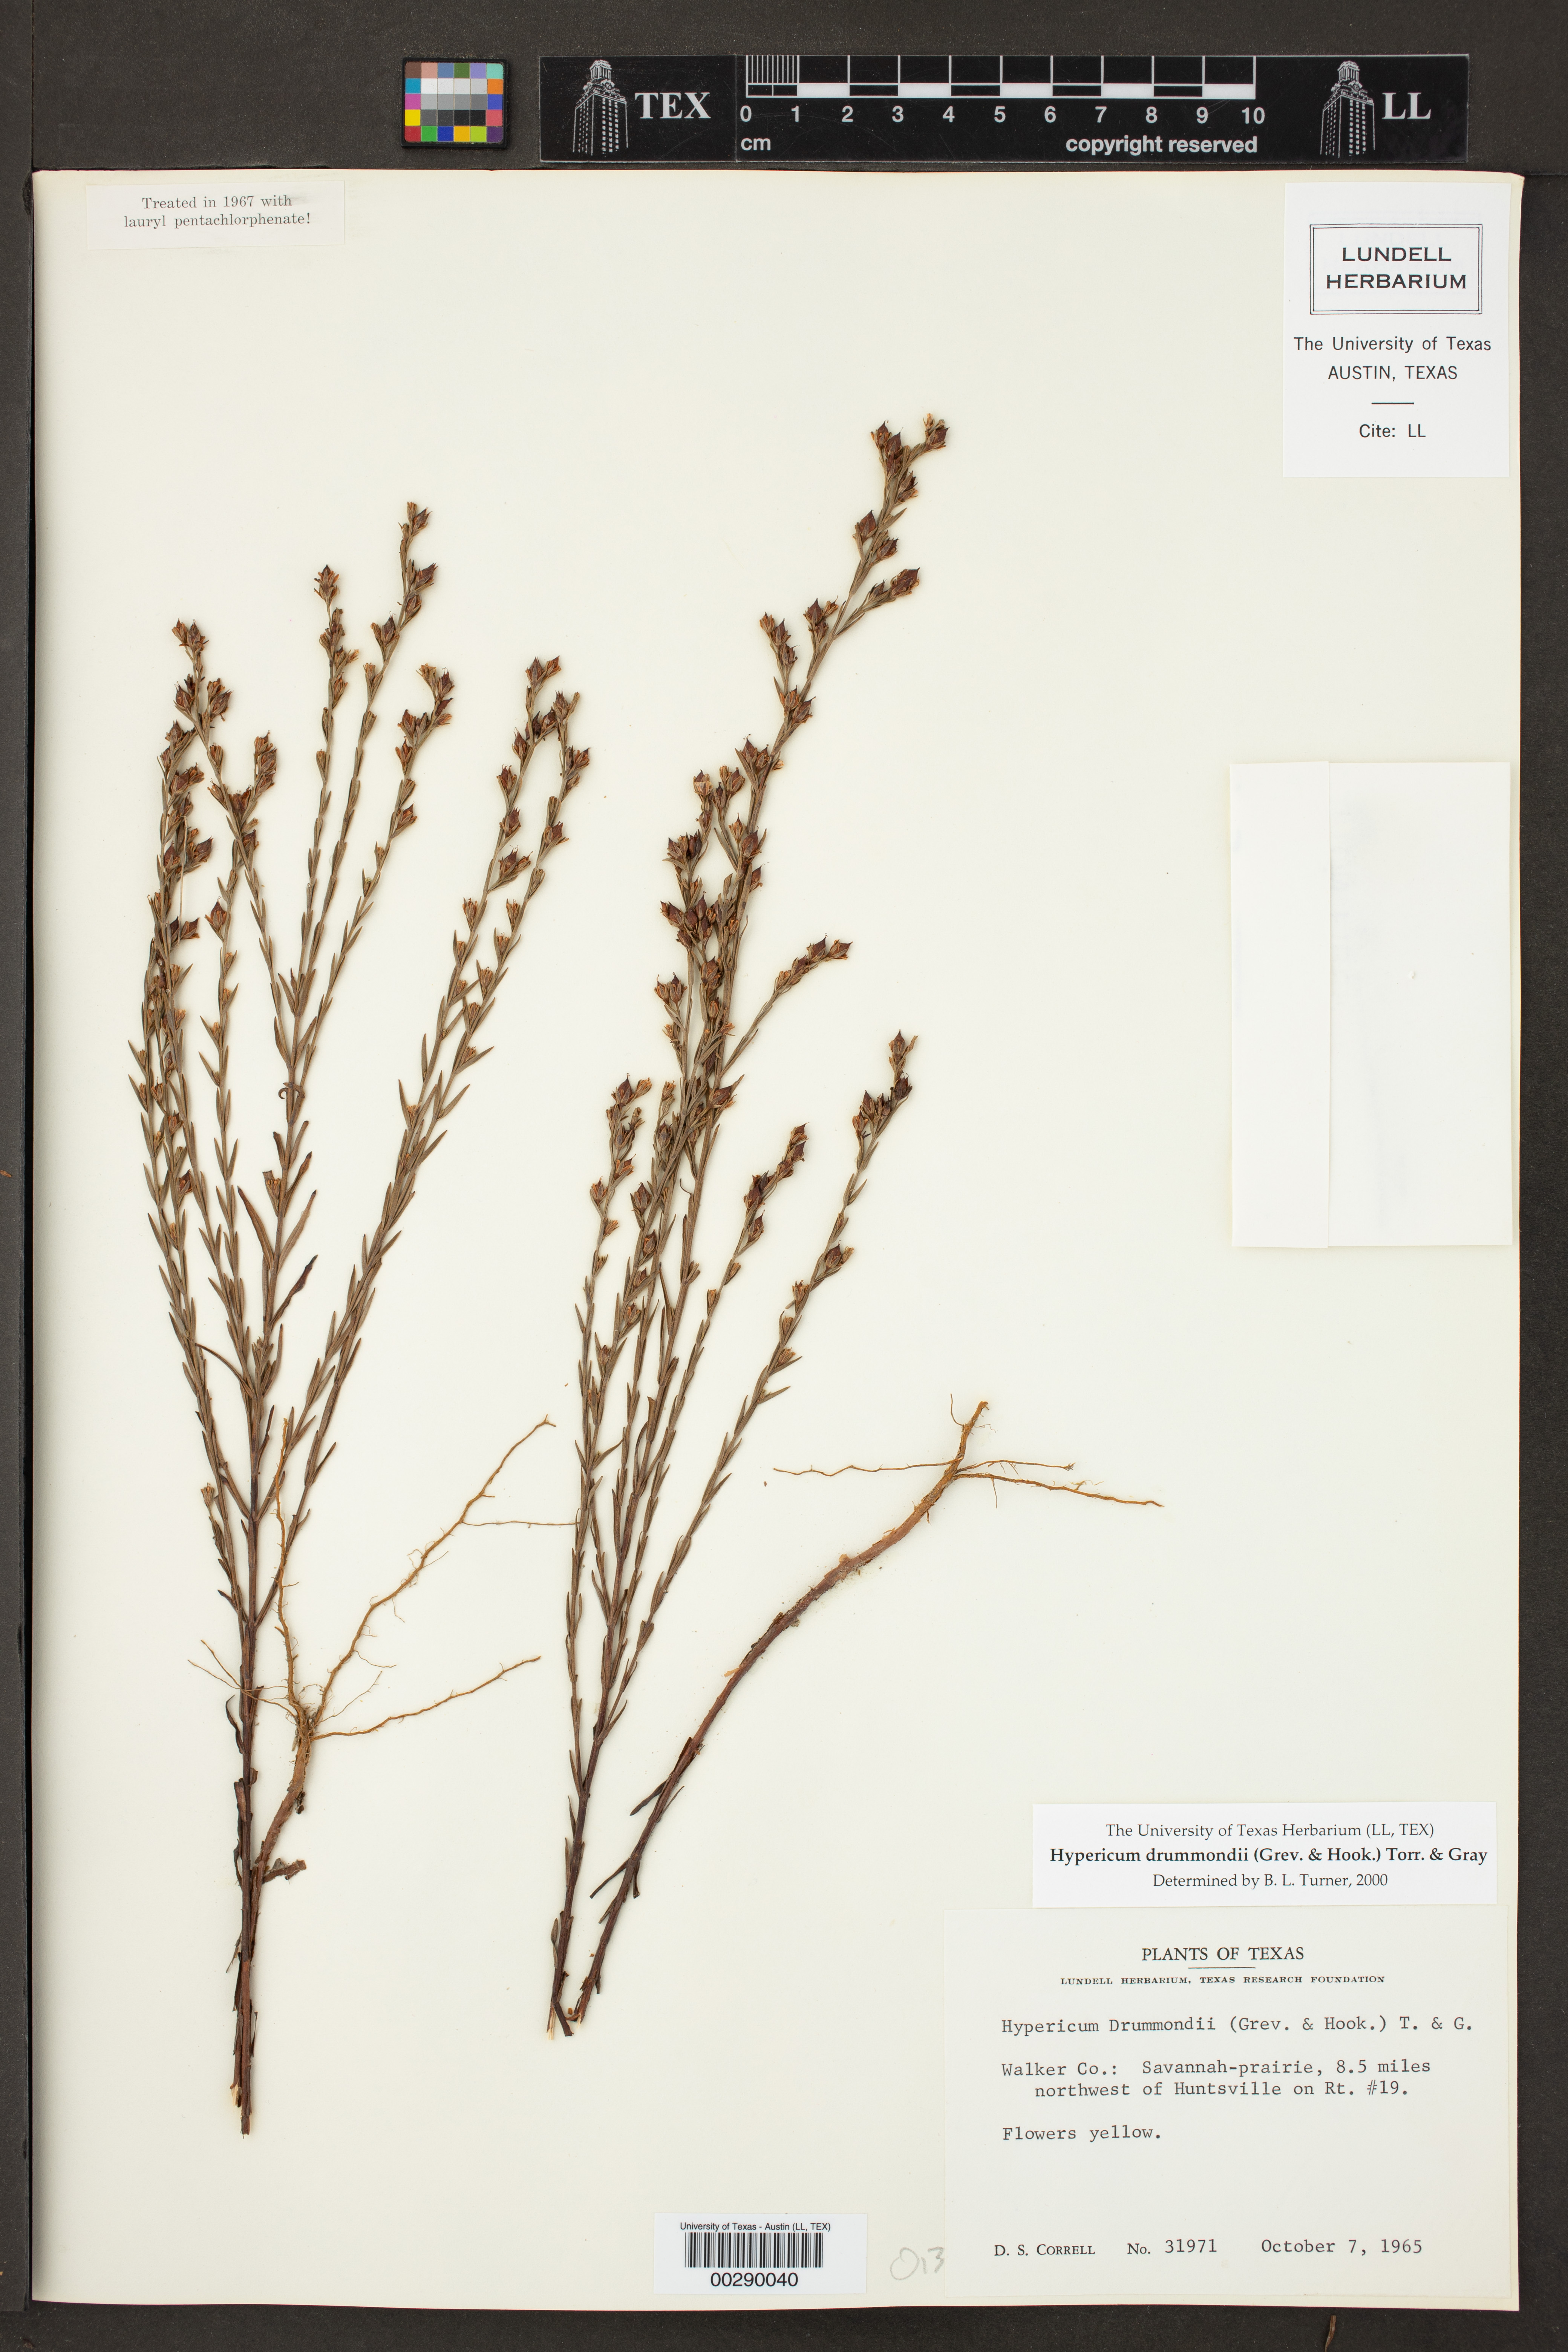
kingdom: Plantae
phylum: Tracheophyta
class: Magnoliopsida
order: Malpighiales
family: Hypericaceae
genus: Hypericum
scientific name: Hypericum drummondii
